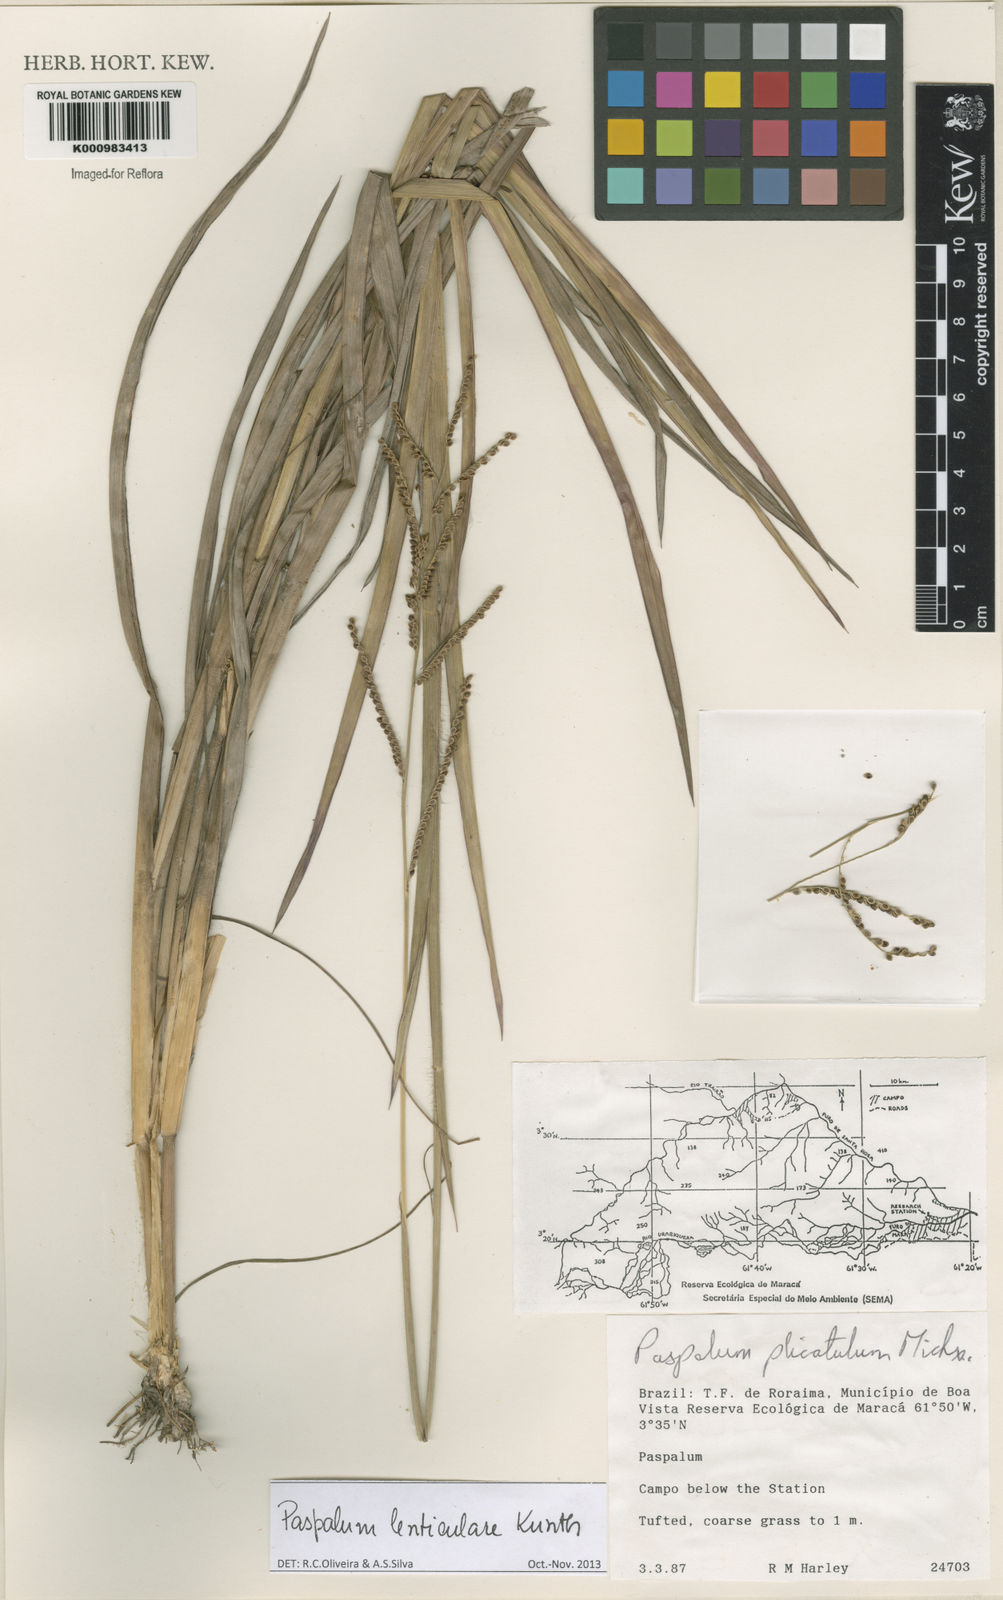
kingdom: Plantae
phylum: Tracheophyta
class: Liliopsida
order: Poales
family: Poaceae
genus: Paspalum
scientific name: Paspalum plicatulum
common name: Top paspalum
